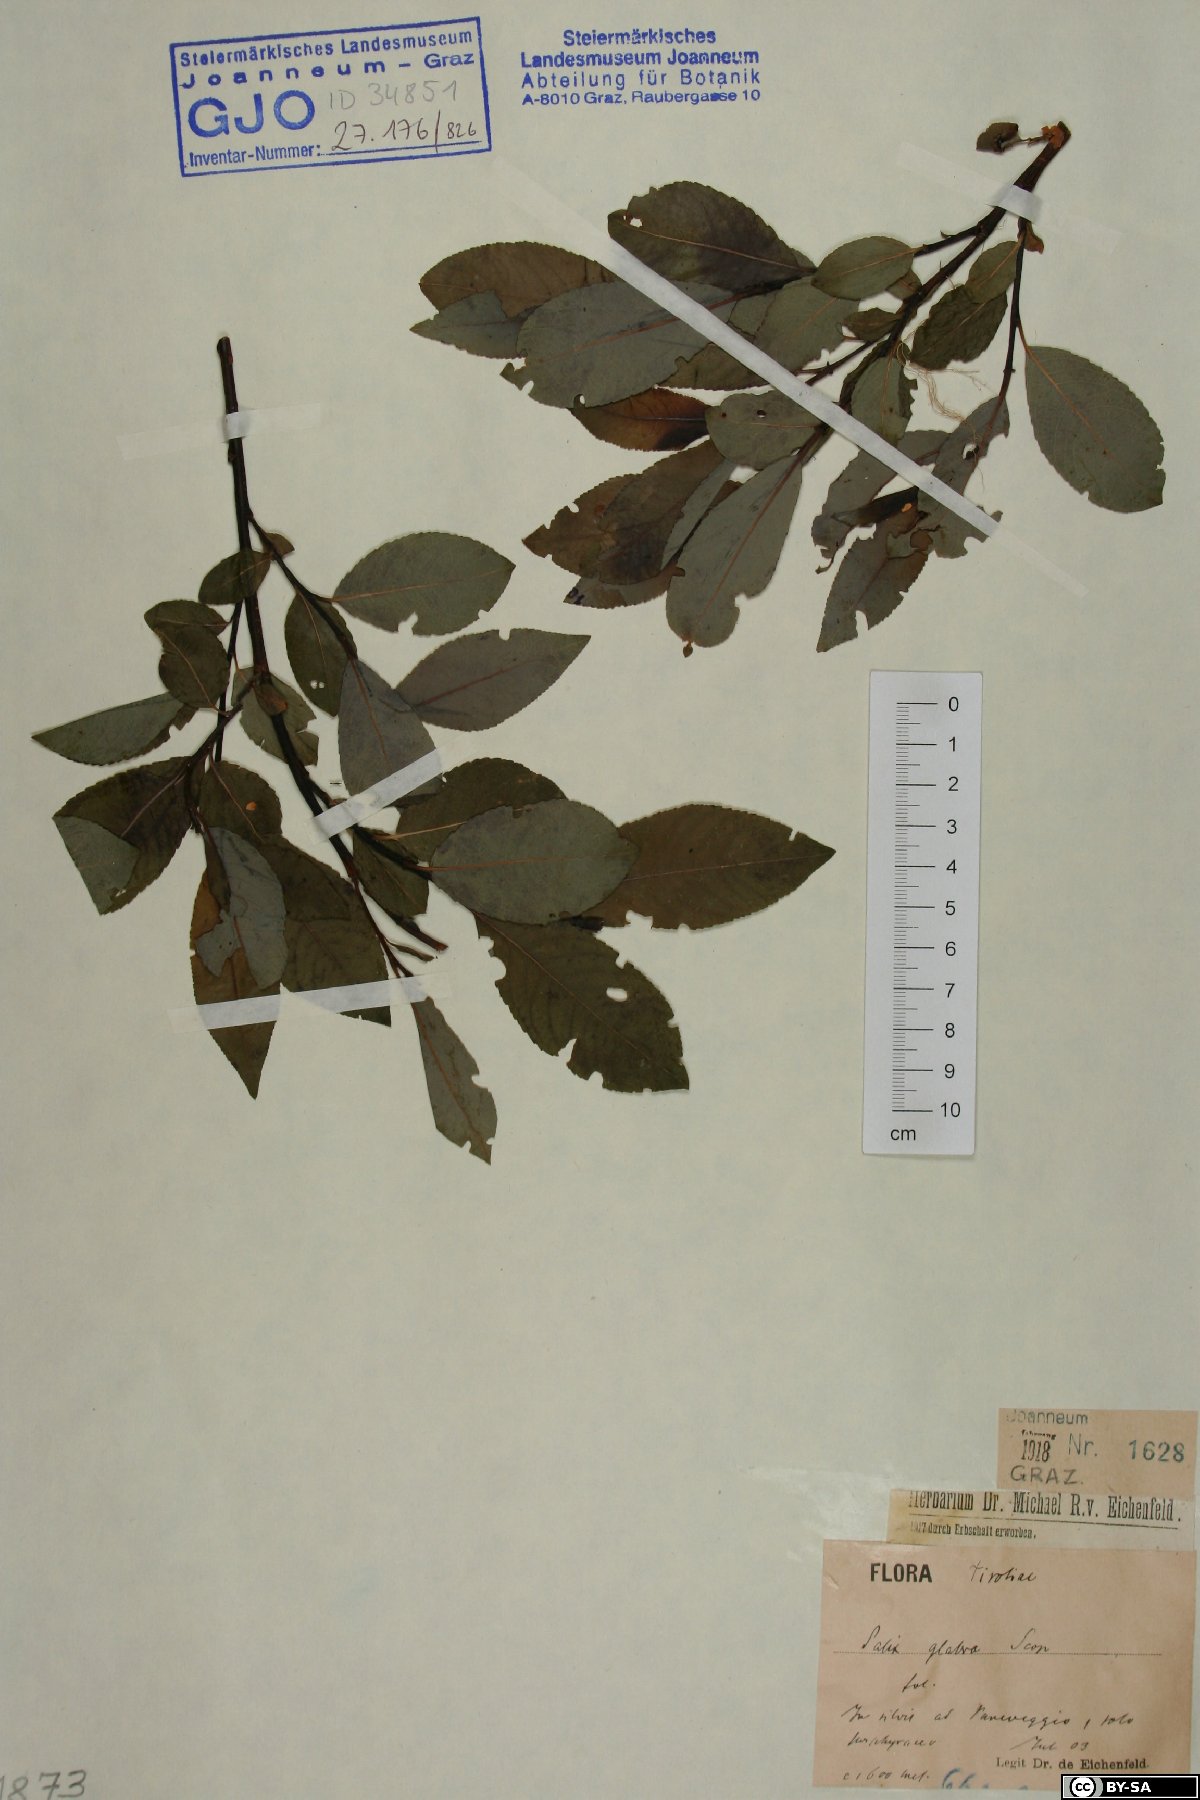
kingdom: Plantae
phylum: Tracheophyta
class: Magnoliopsida
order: Malpighiales
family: Salicaceae
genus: Salix
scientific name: Salix glabra
